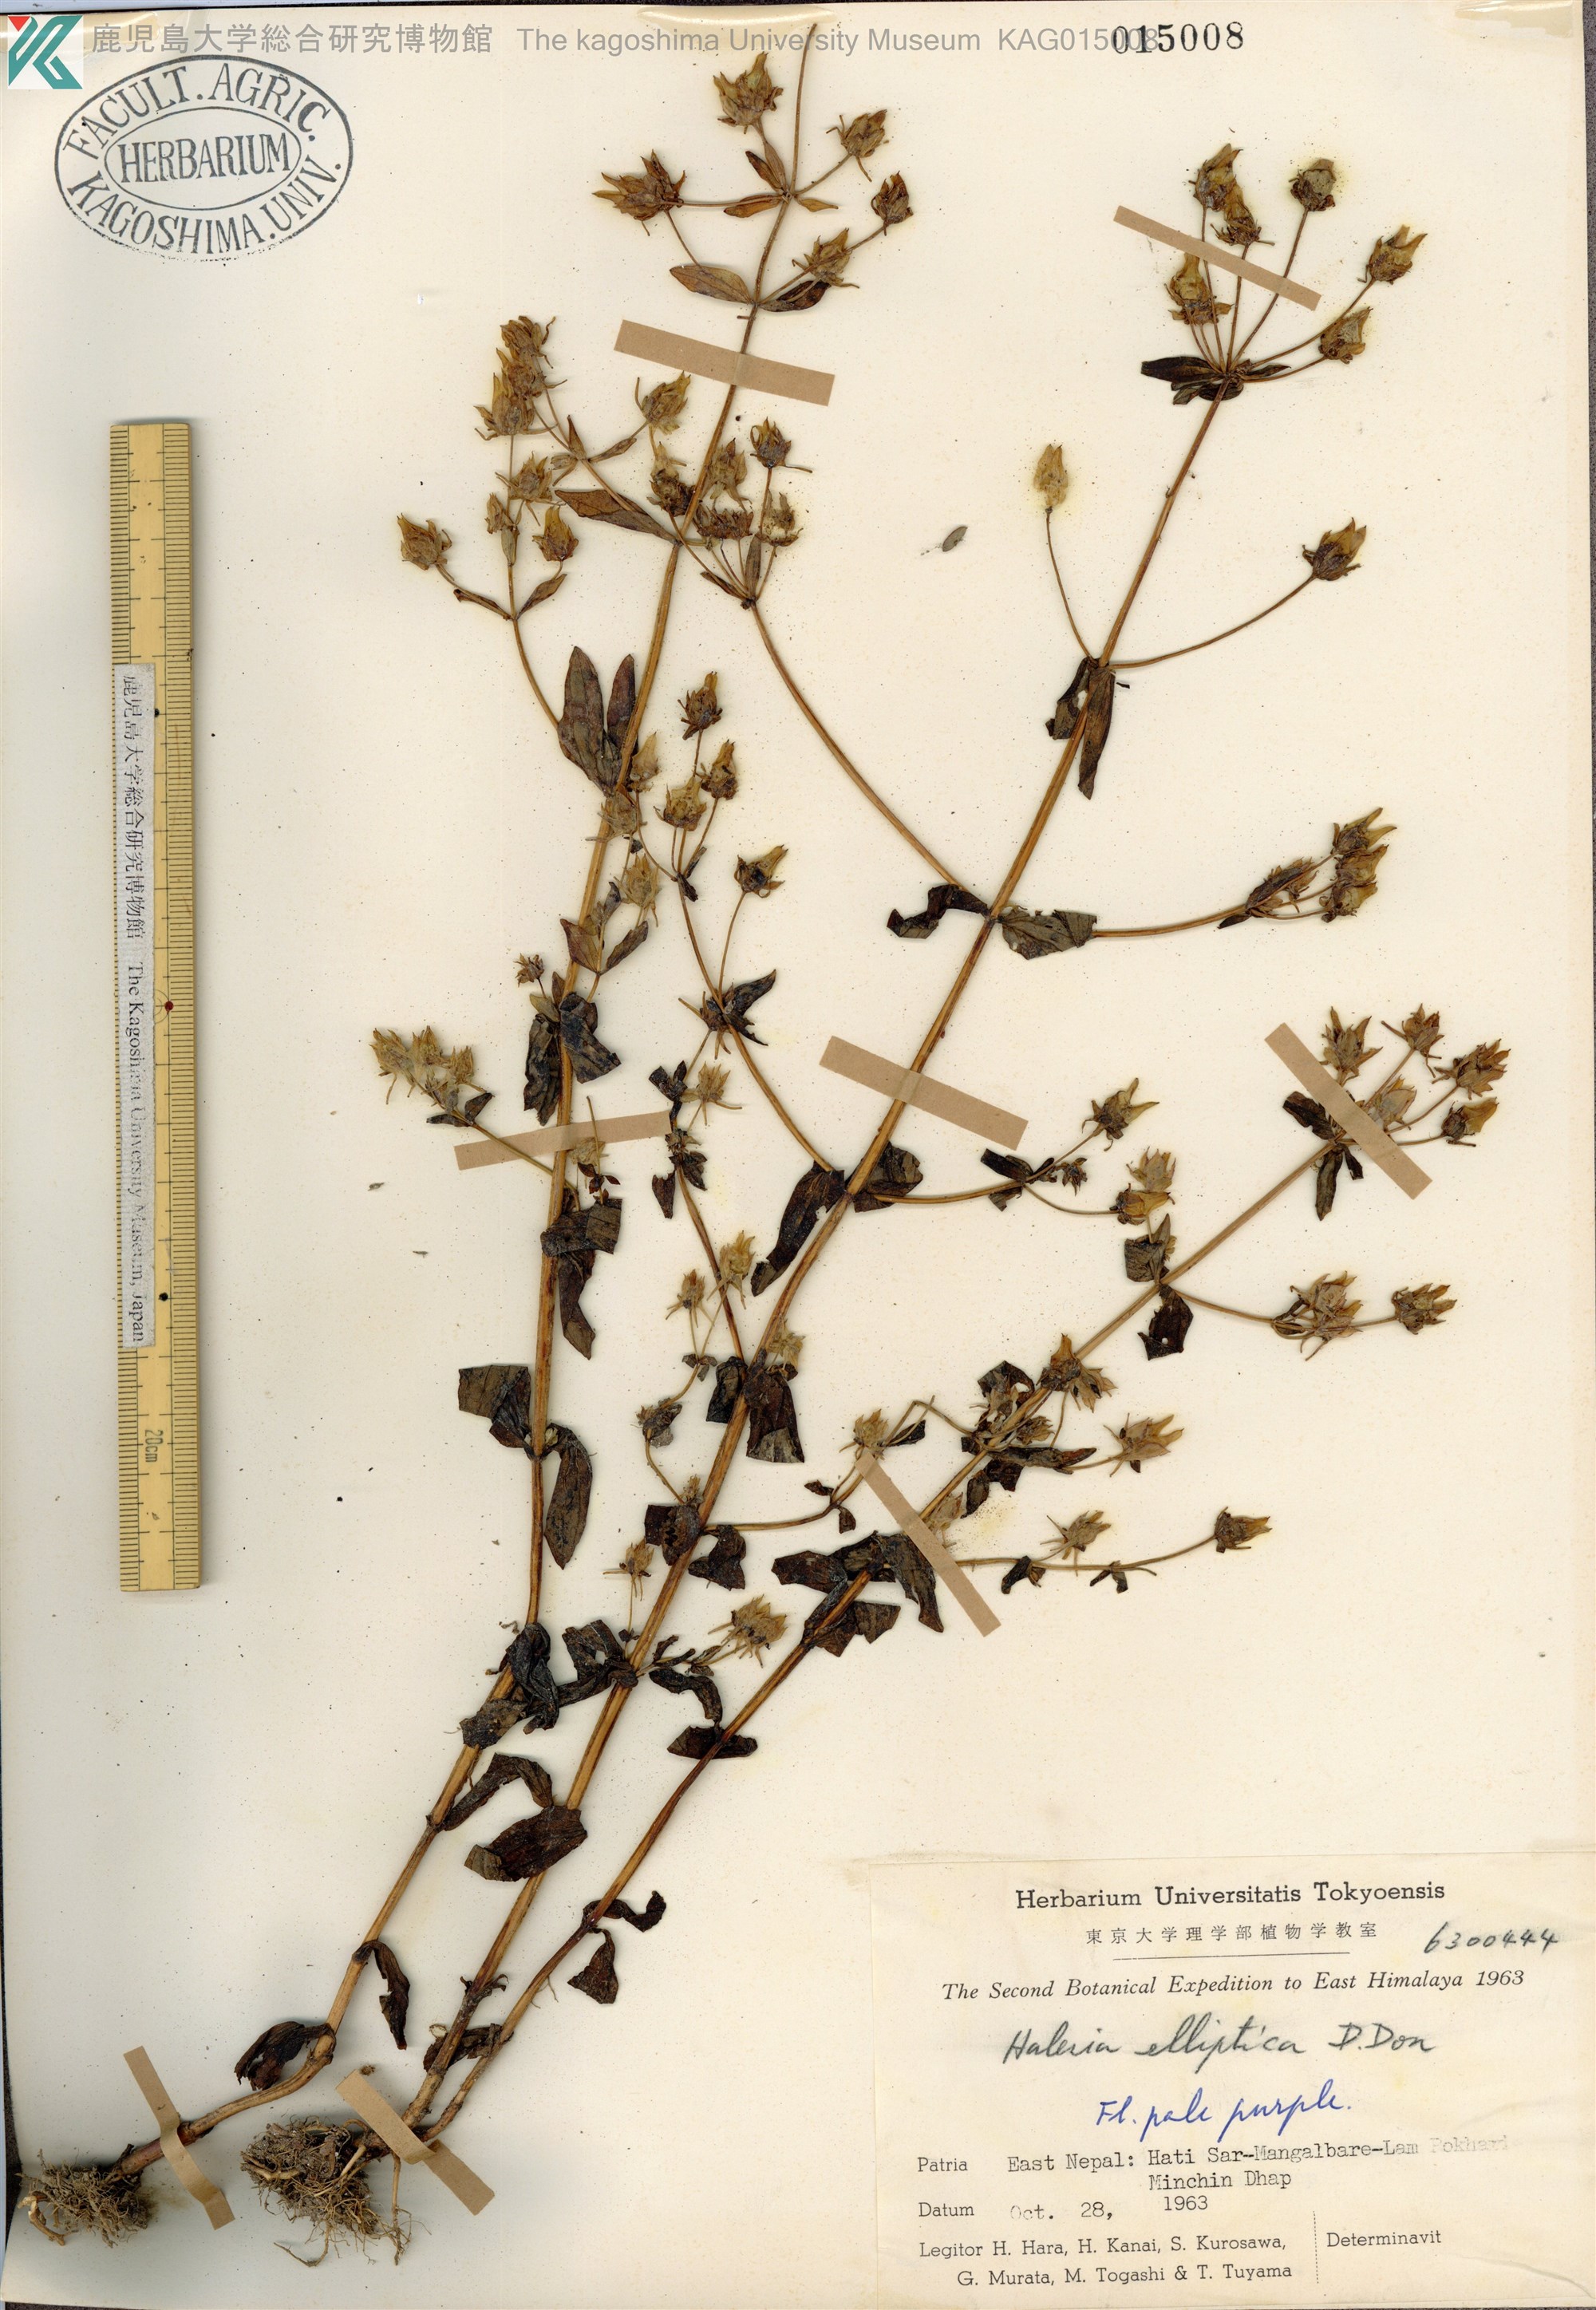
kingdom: Plantae
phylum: Tracheophyta
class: Magnoliopsida
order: Gentianales
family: Gentianaceae
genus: Halenia
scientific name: Halenia elliptica
